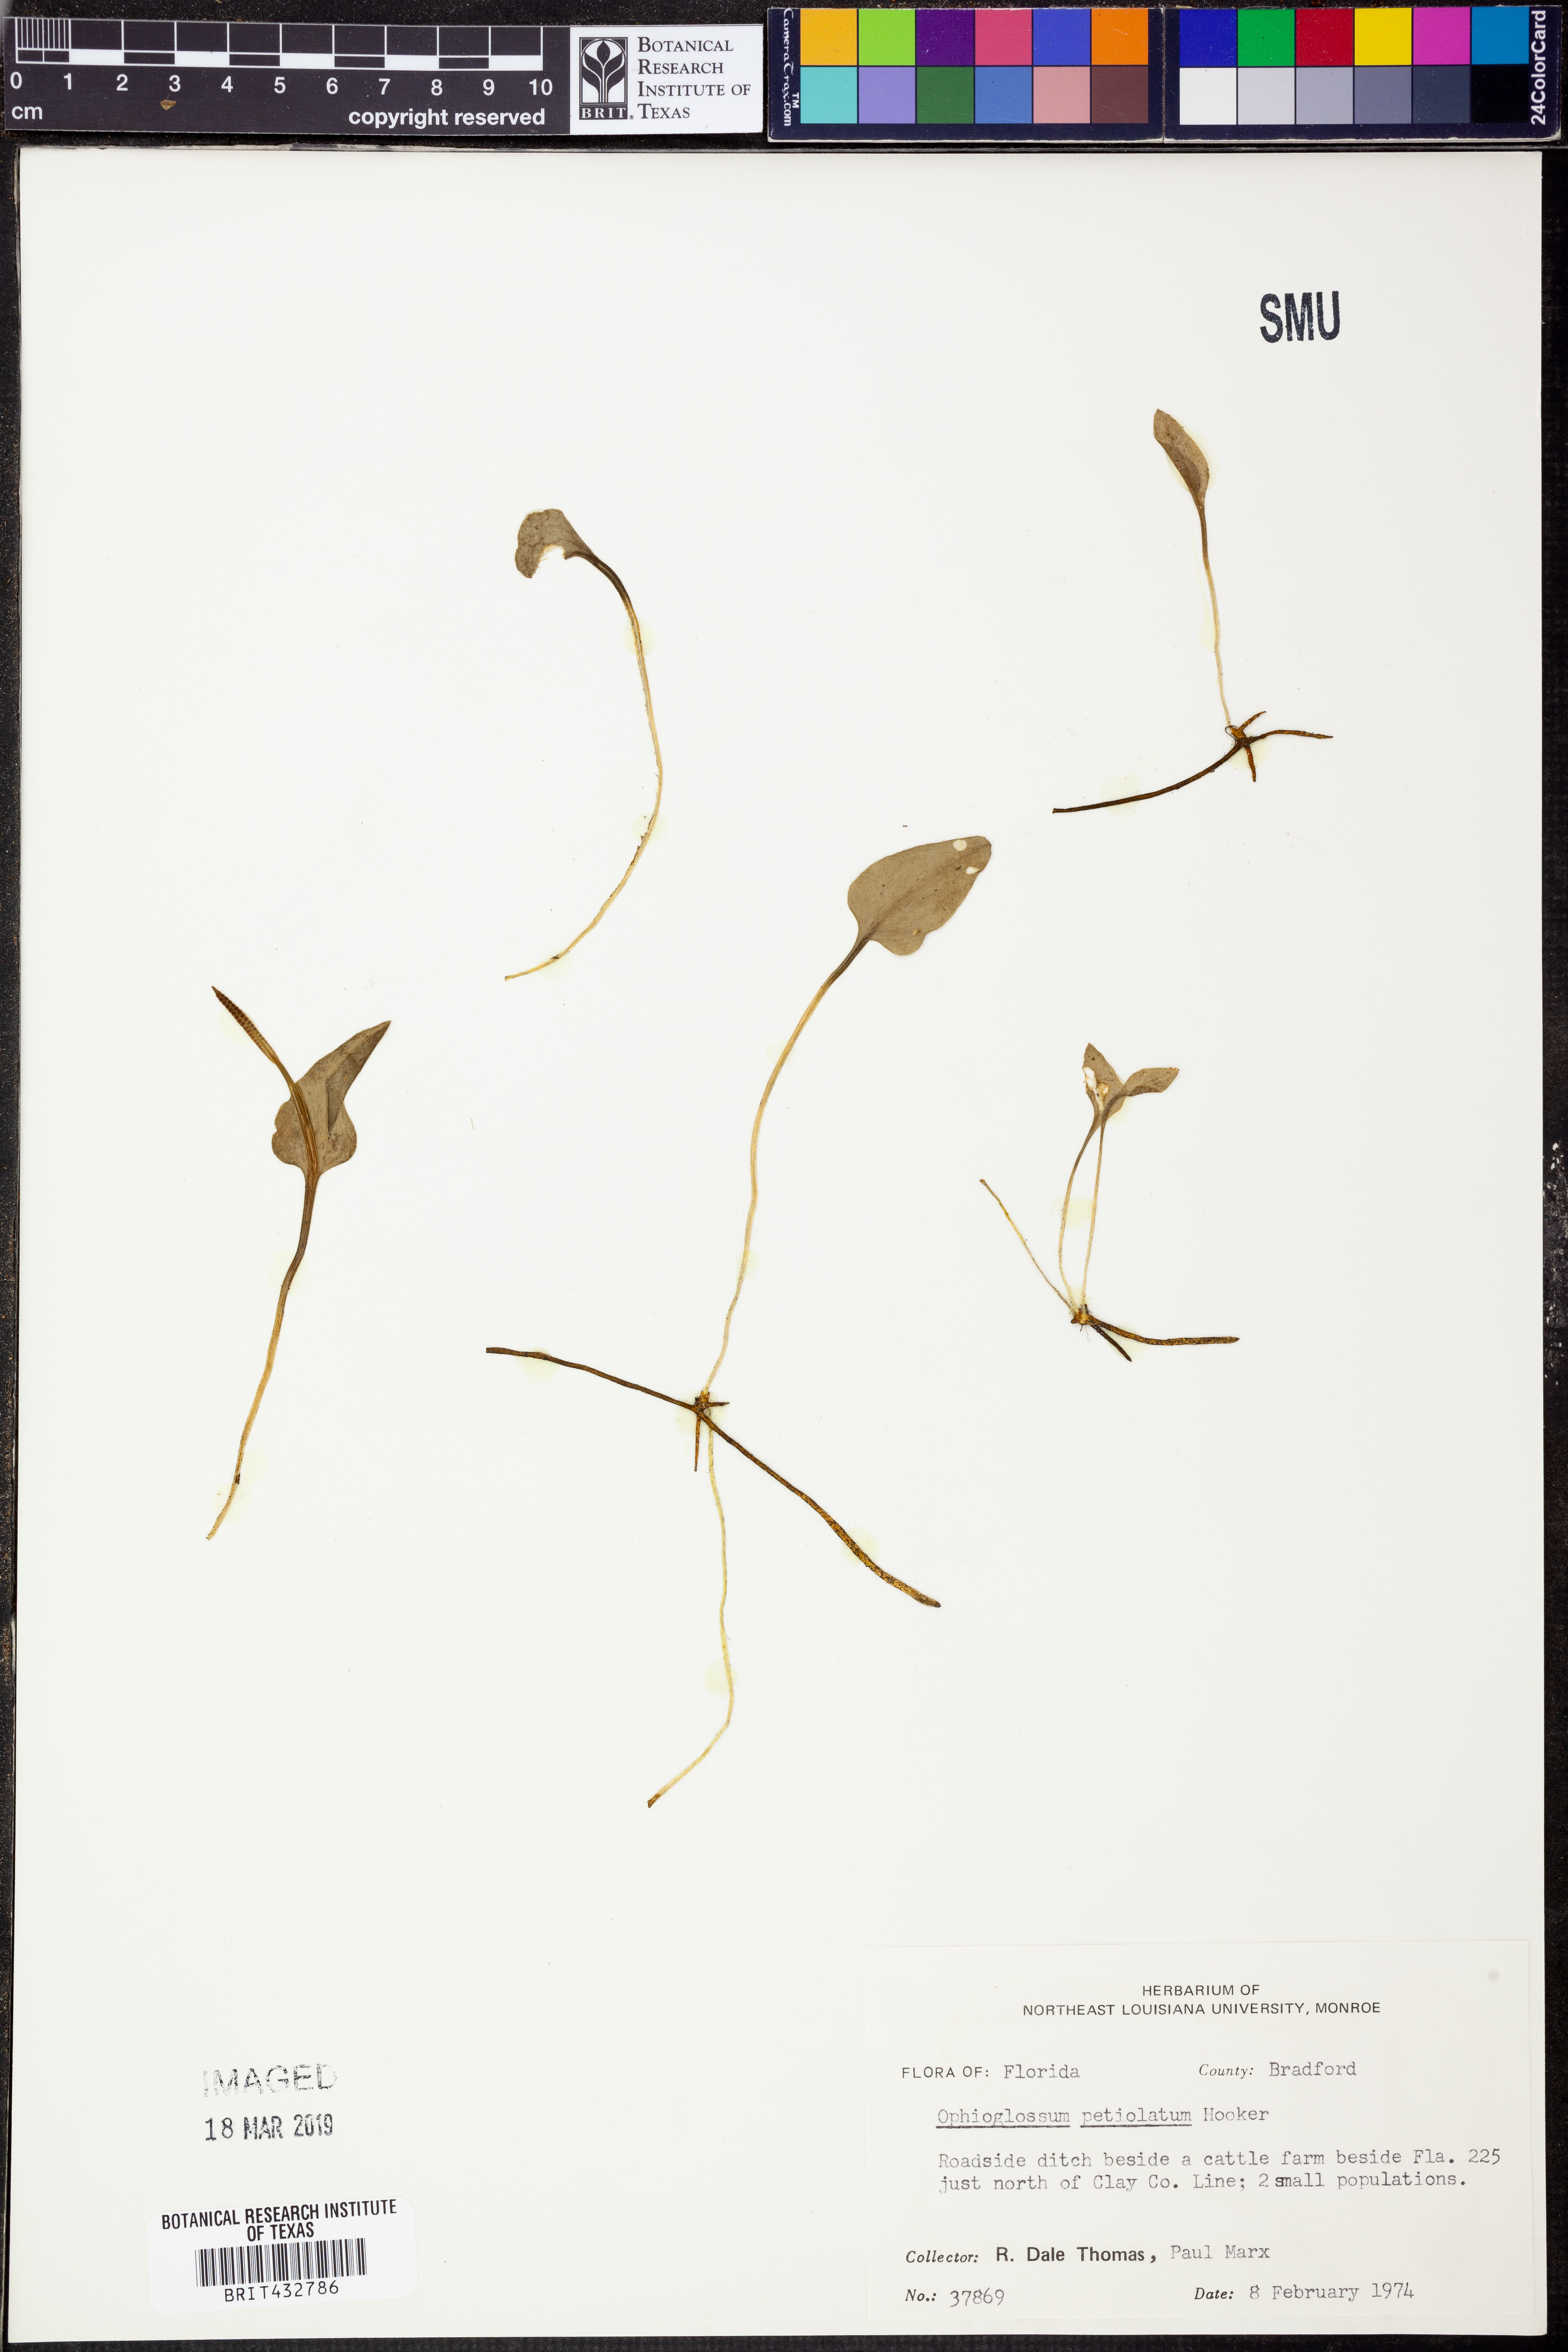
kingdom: Plantae
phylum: Tracheophyta
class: Polypodiopsida
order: Ophioglossales
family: Ophioglossaceae
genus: Ophioglossum
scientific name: Ophioglossum petiolatum
